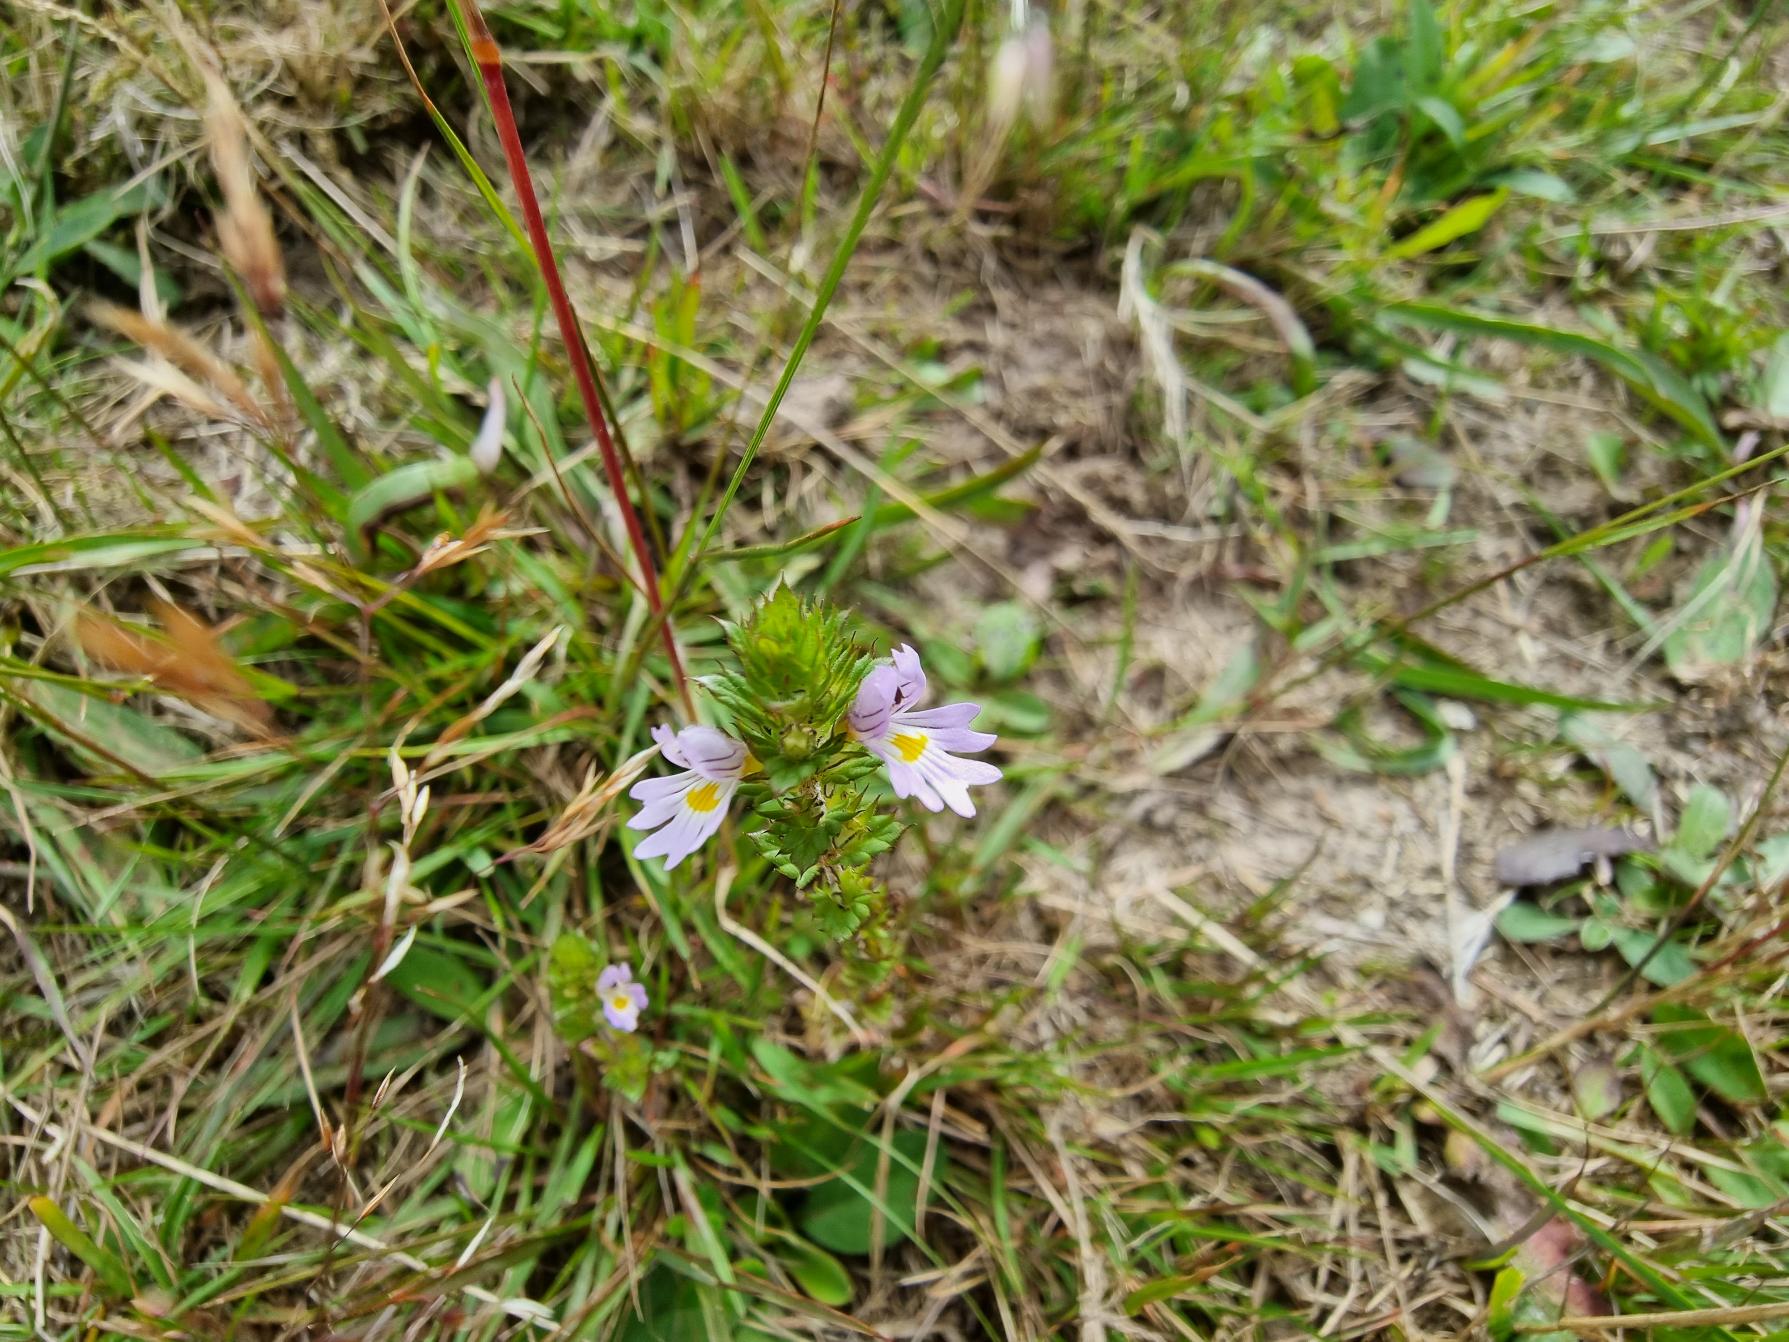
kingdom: Plantae
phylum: Tracheophyta
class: Magnoliopsida
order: Lamiales
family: Orobanchaceae
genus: Euphrasia
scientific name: Euphrasia vernalis
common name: Kirtel-øjentrøst
